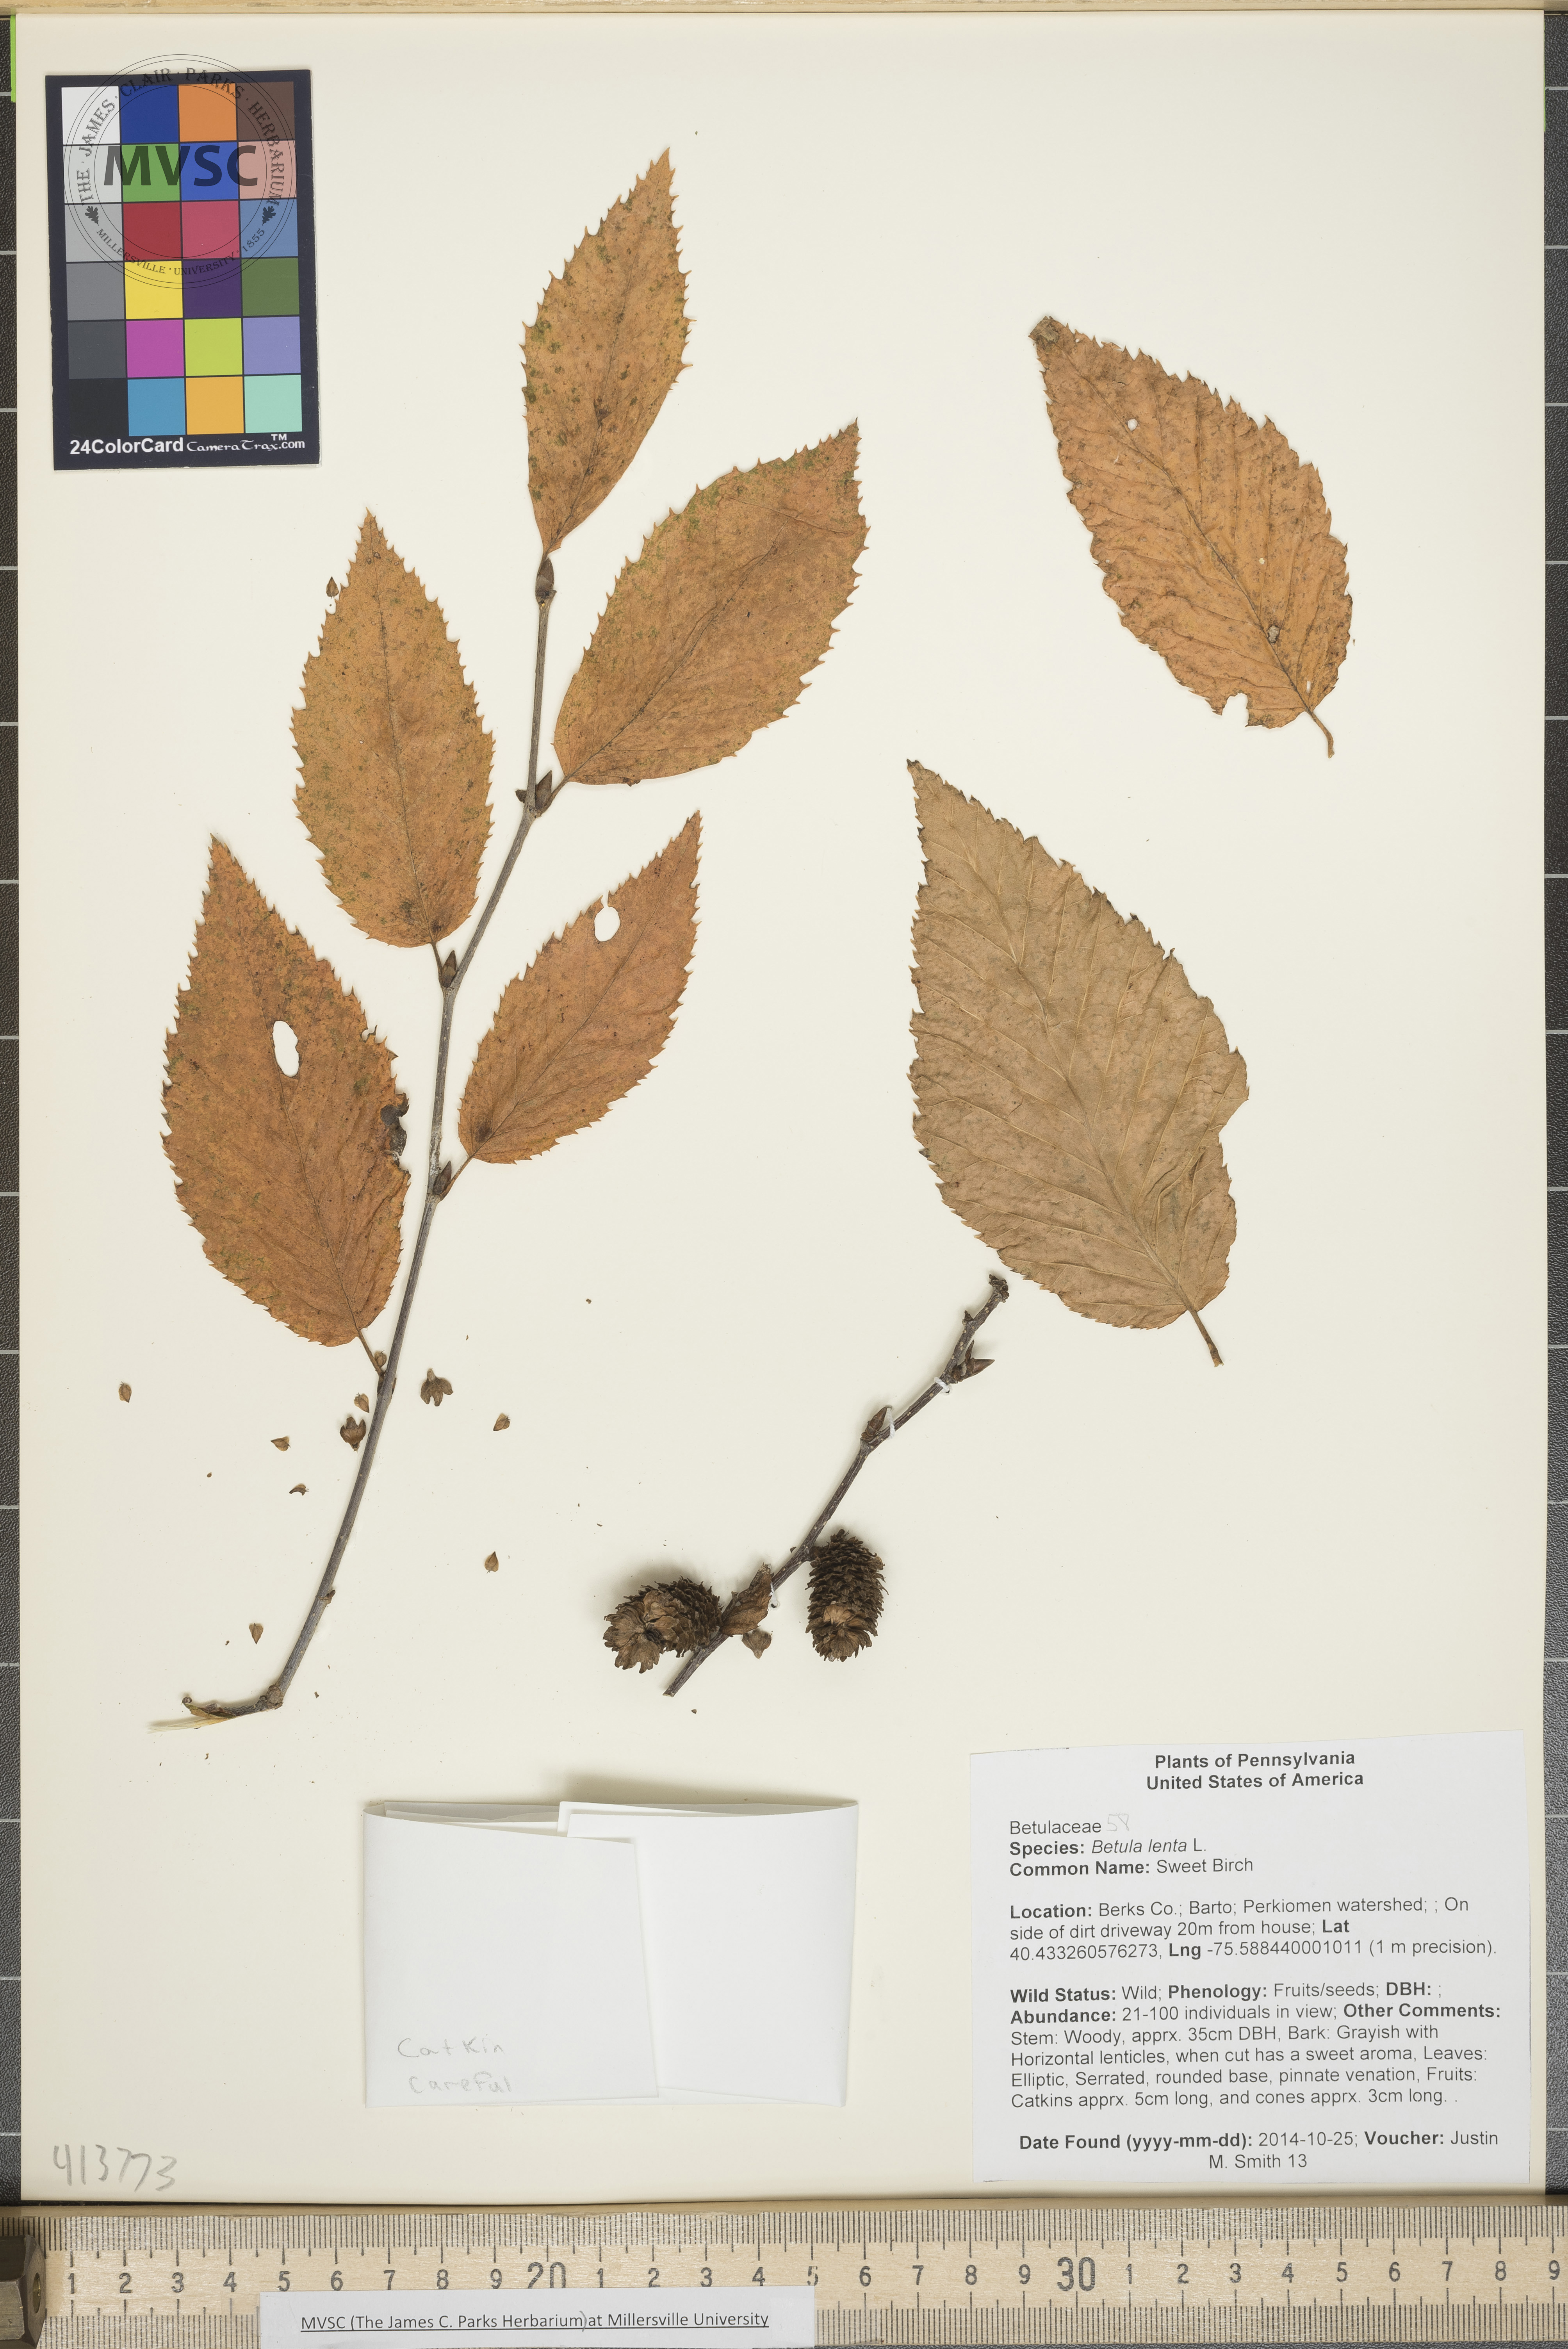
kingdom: Plantae
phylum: Tracheophyta
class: Magnoliopsida
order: Fagales
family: Betulaceae
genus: Betula
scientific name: Betula lenta
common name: Sweet Birch
